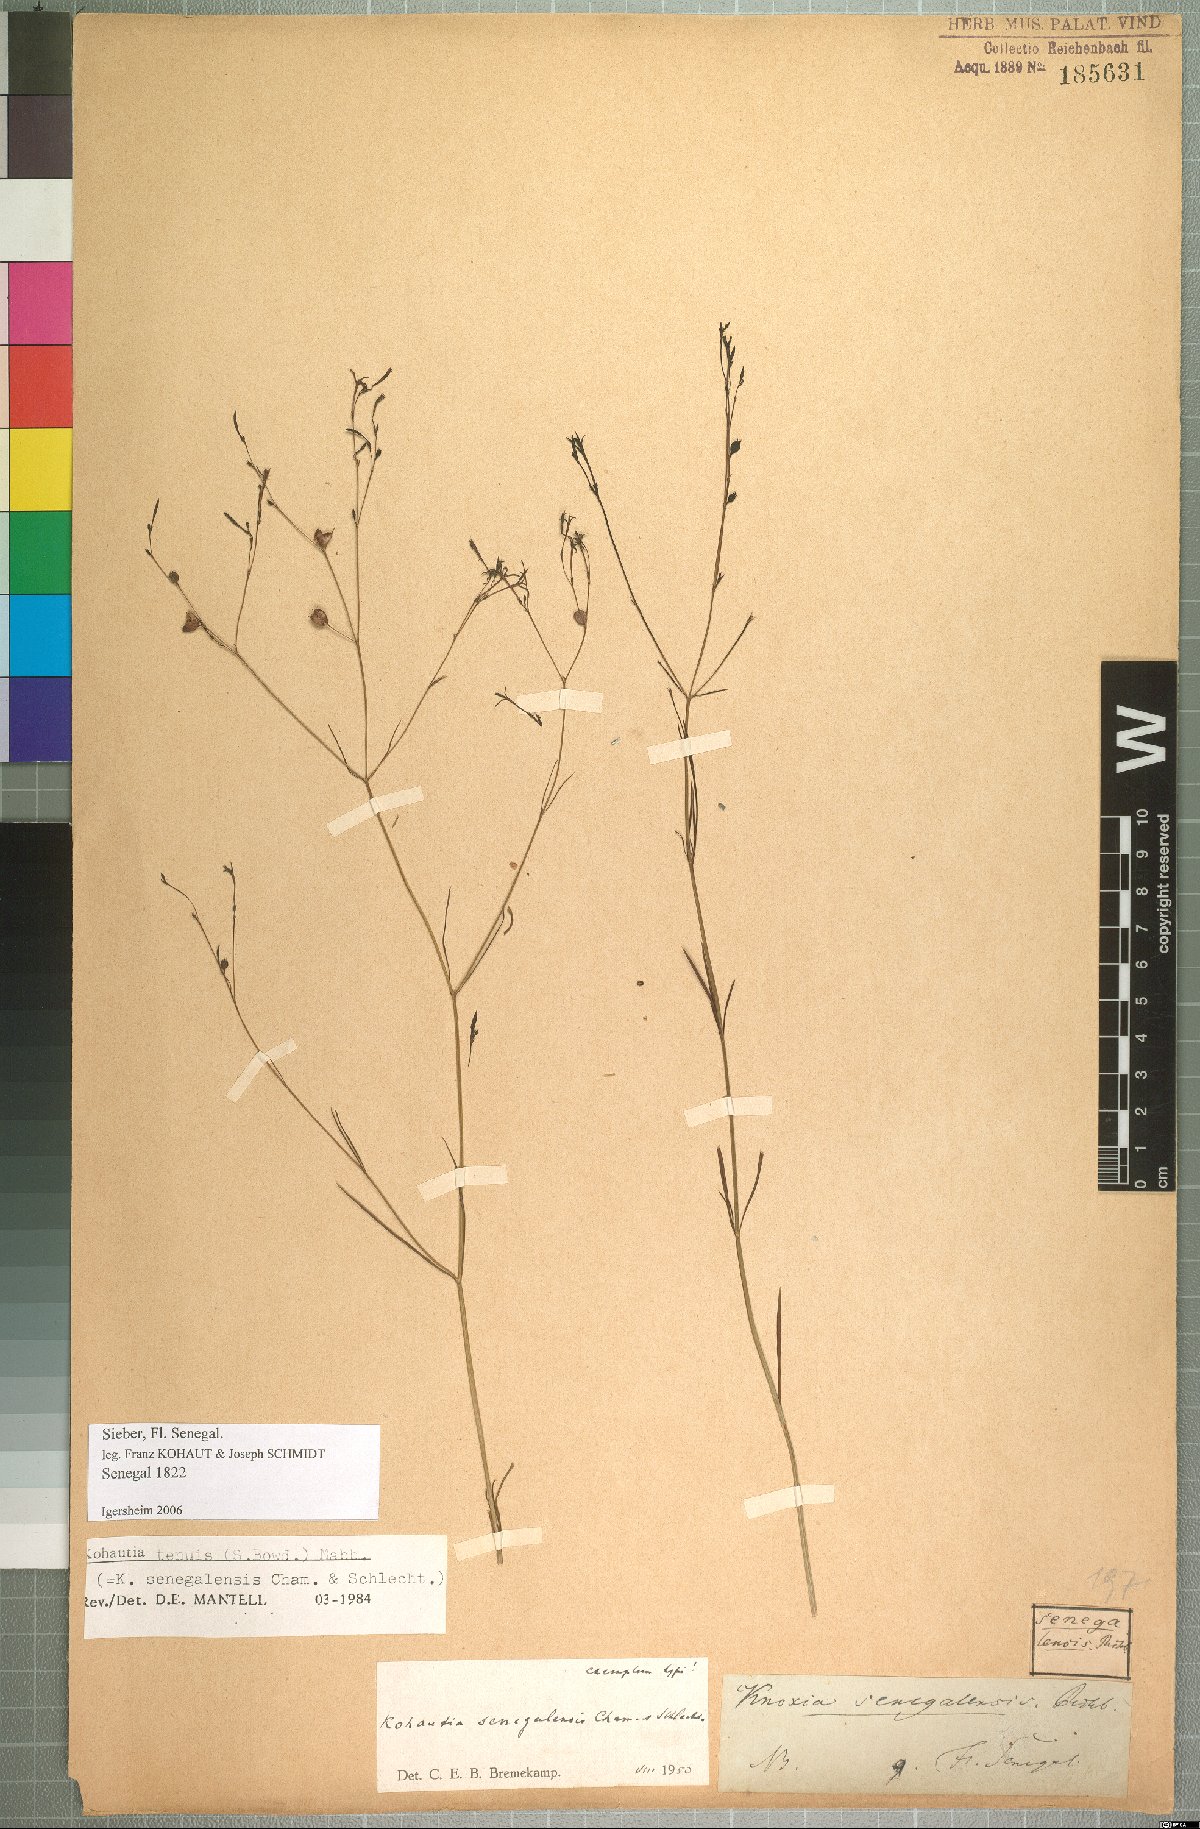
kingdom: Plantae
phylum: Tracheophyta
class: Magnoliopsida
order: Gentianales
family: Rubiaceae
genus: Kohautia
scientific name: Kohautia tenuis
